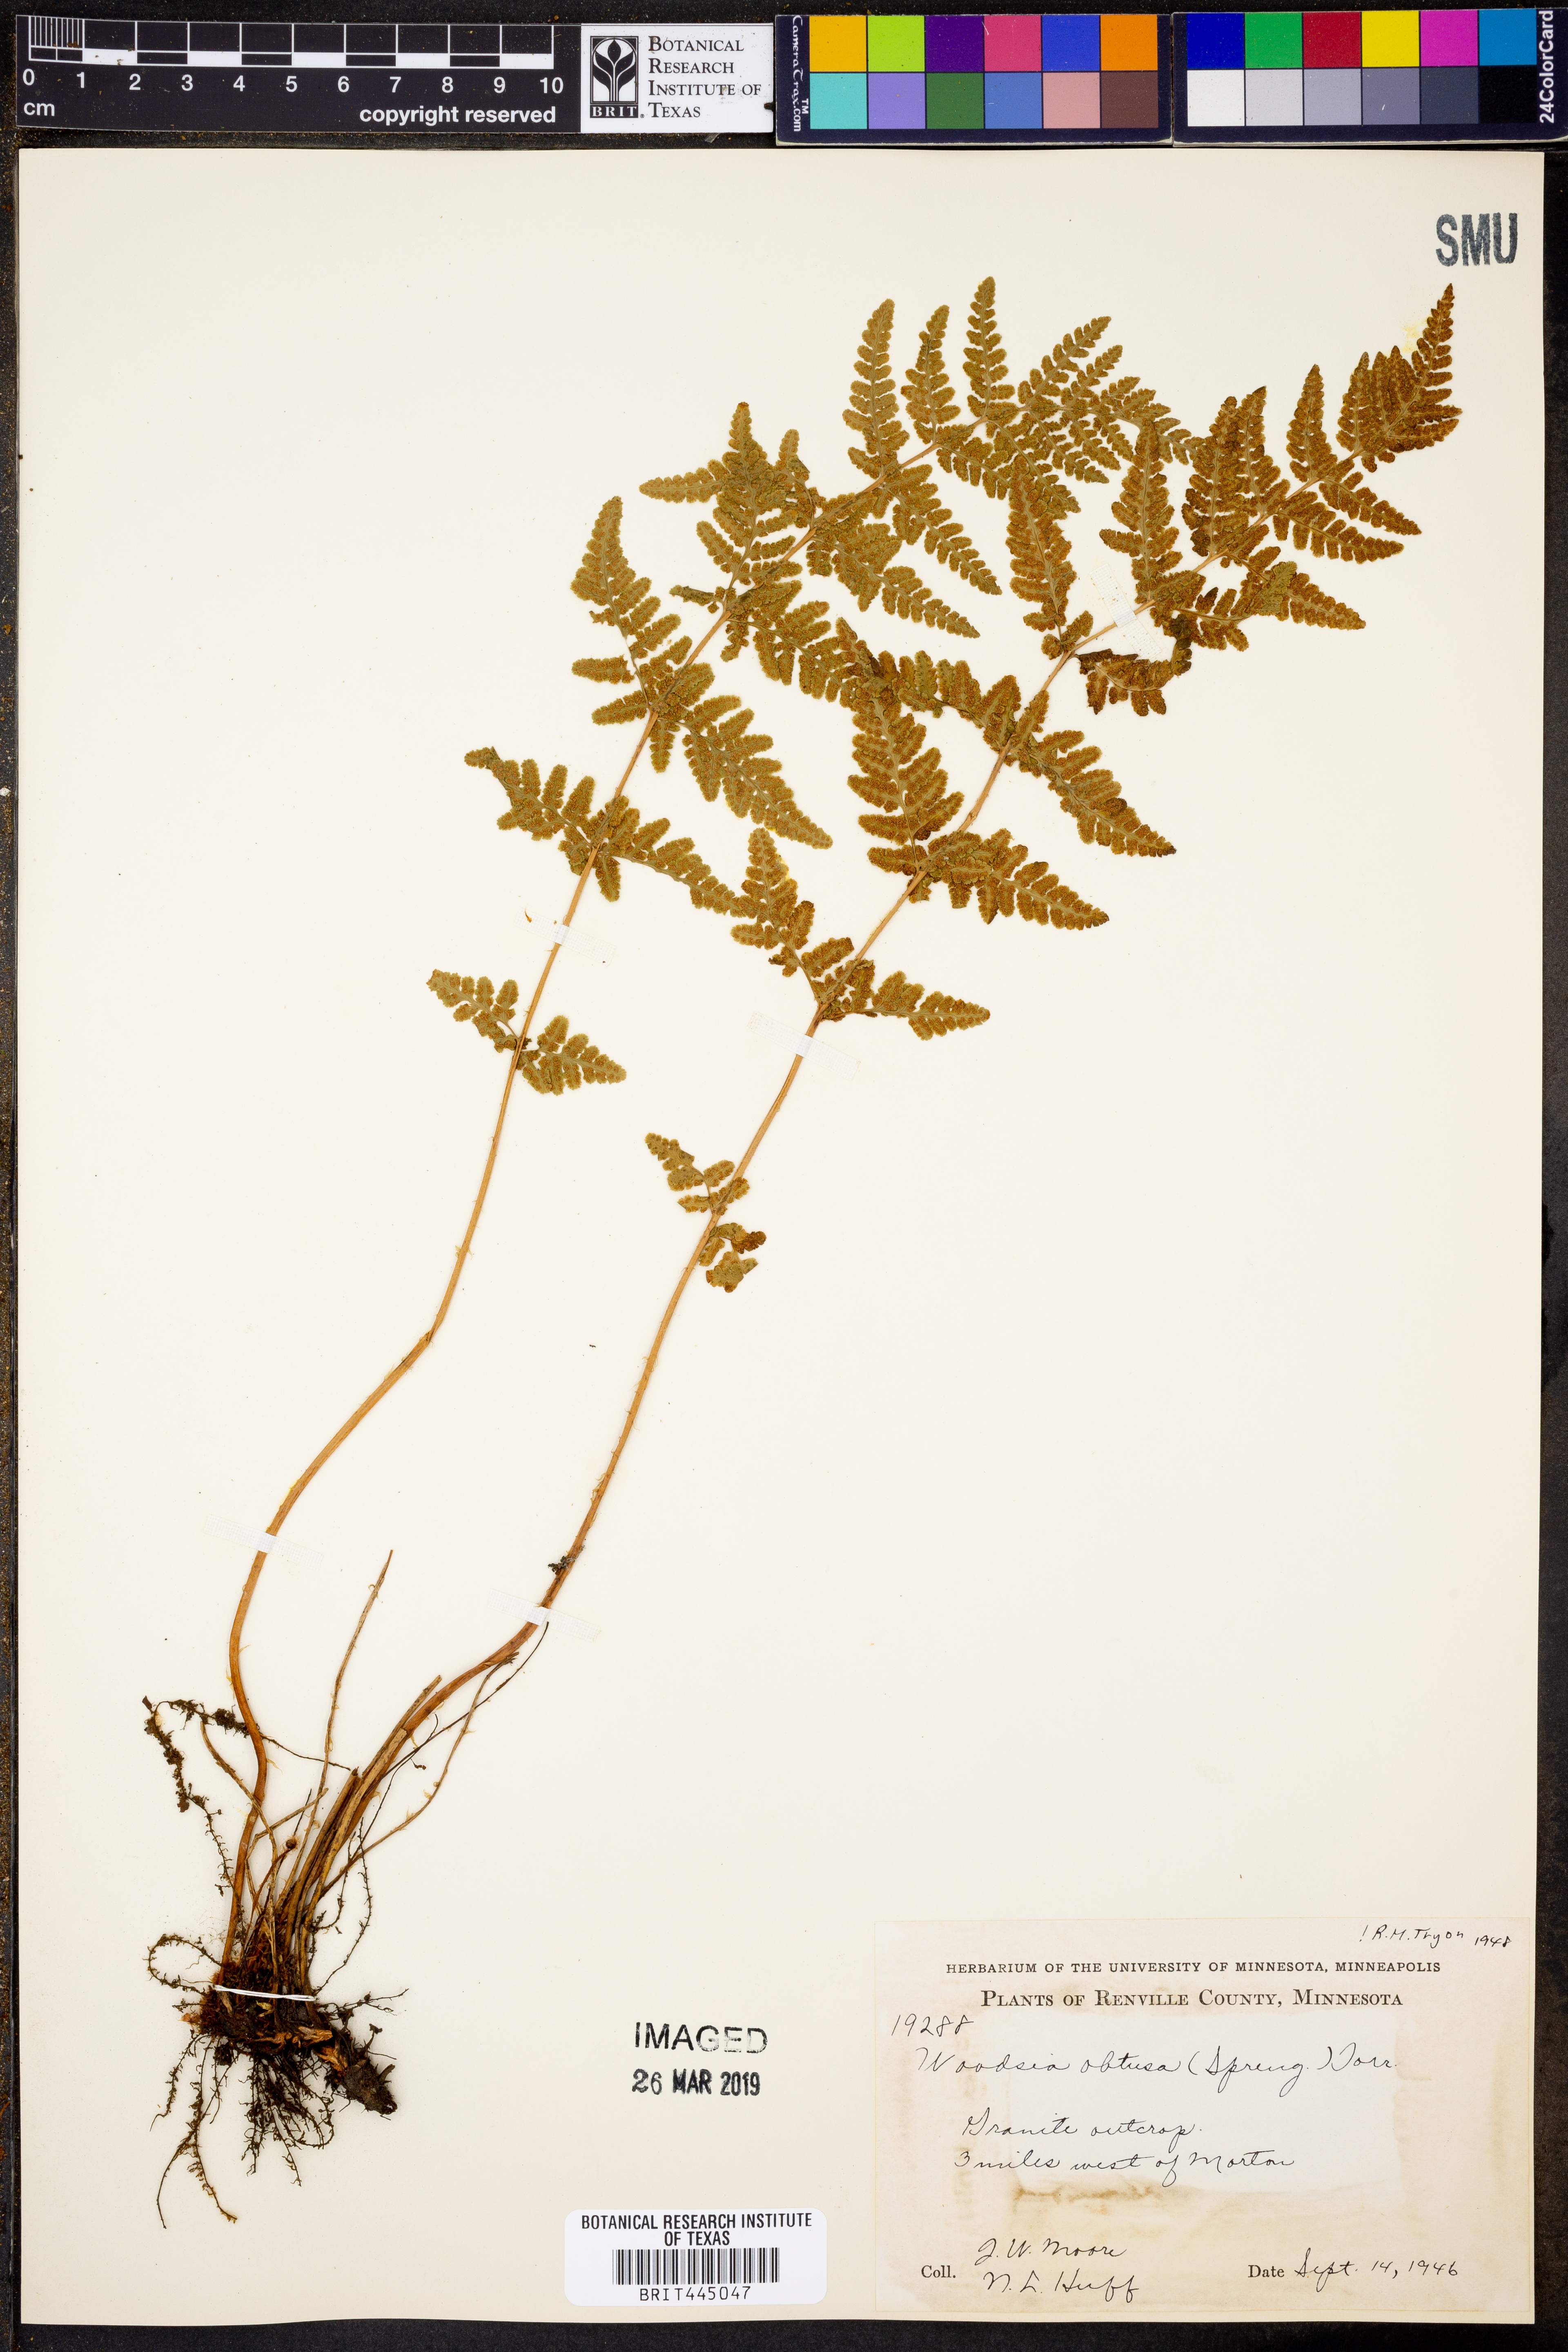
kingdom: Plantae
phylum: Tracheophyta
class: Polypodiopsida
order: Polypodiales
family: Woodsiaceae
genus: Physematium
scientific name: Physematium obtusum
